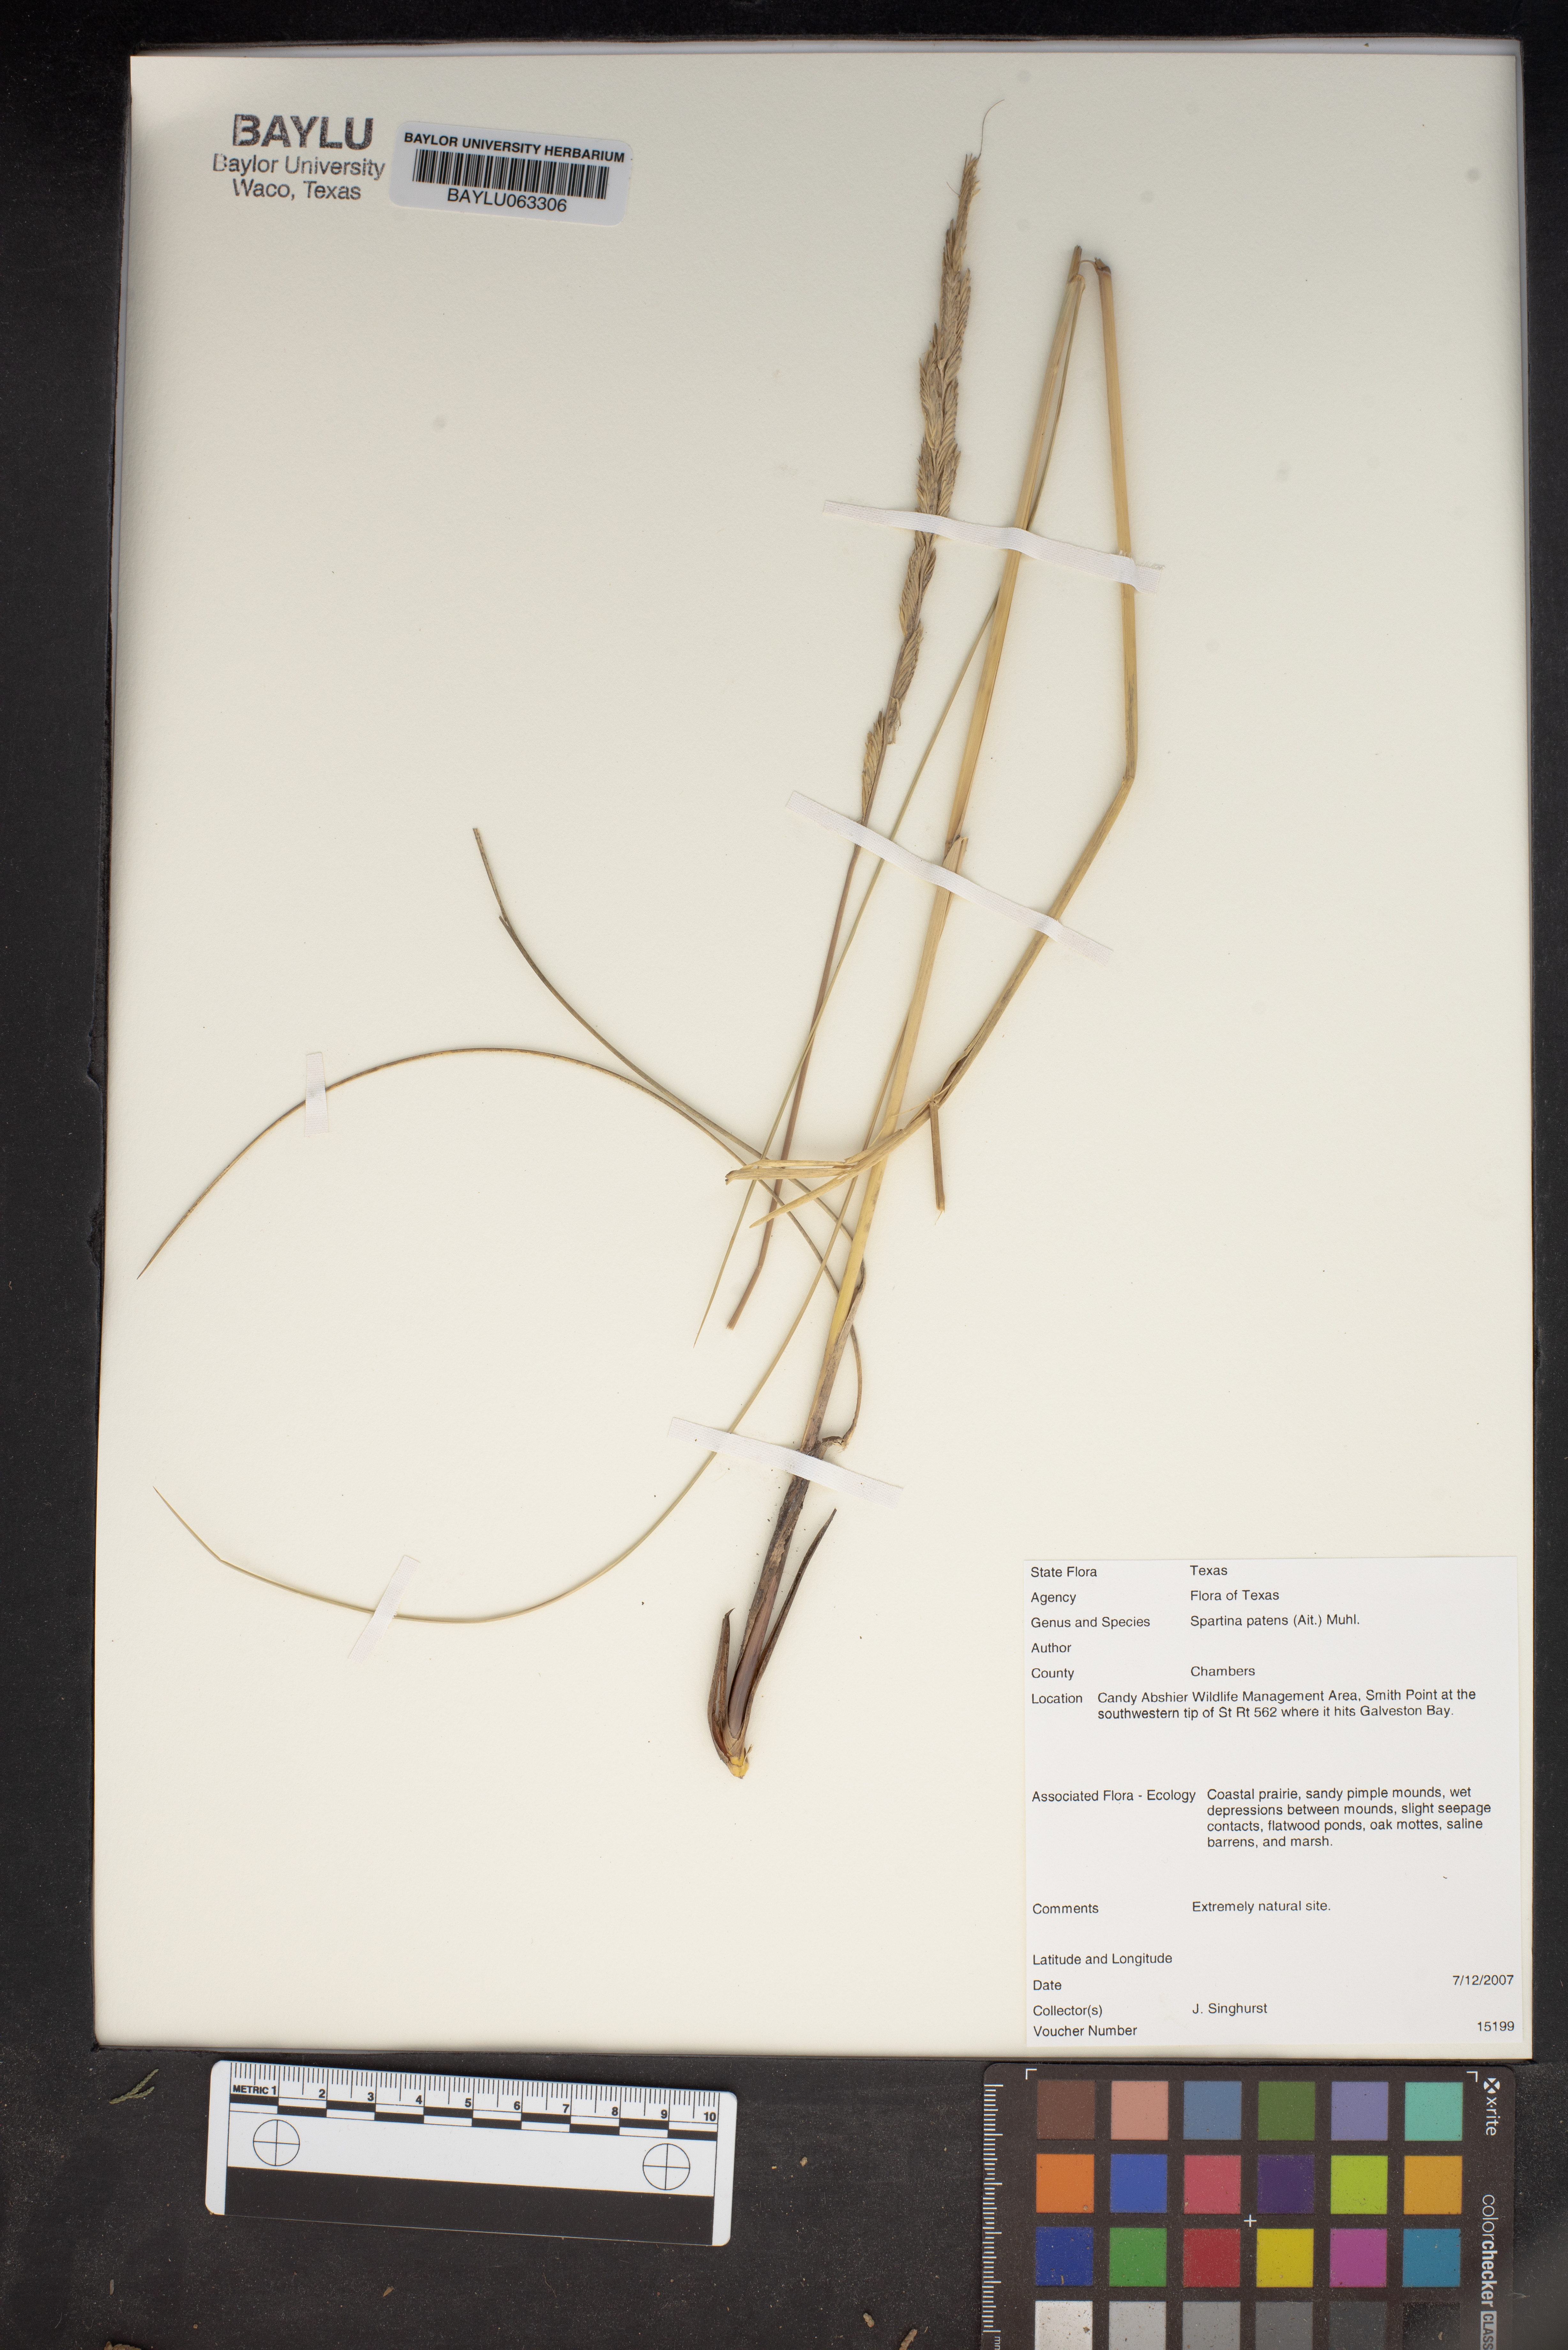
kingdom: Plantae
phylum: Tracheophyta
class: Liliopsida
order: Poales
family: Poaceae
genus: Sporobolus
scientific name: Sporobolus pumilus
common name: Highwater grass
